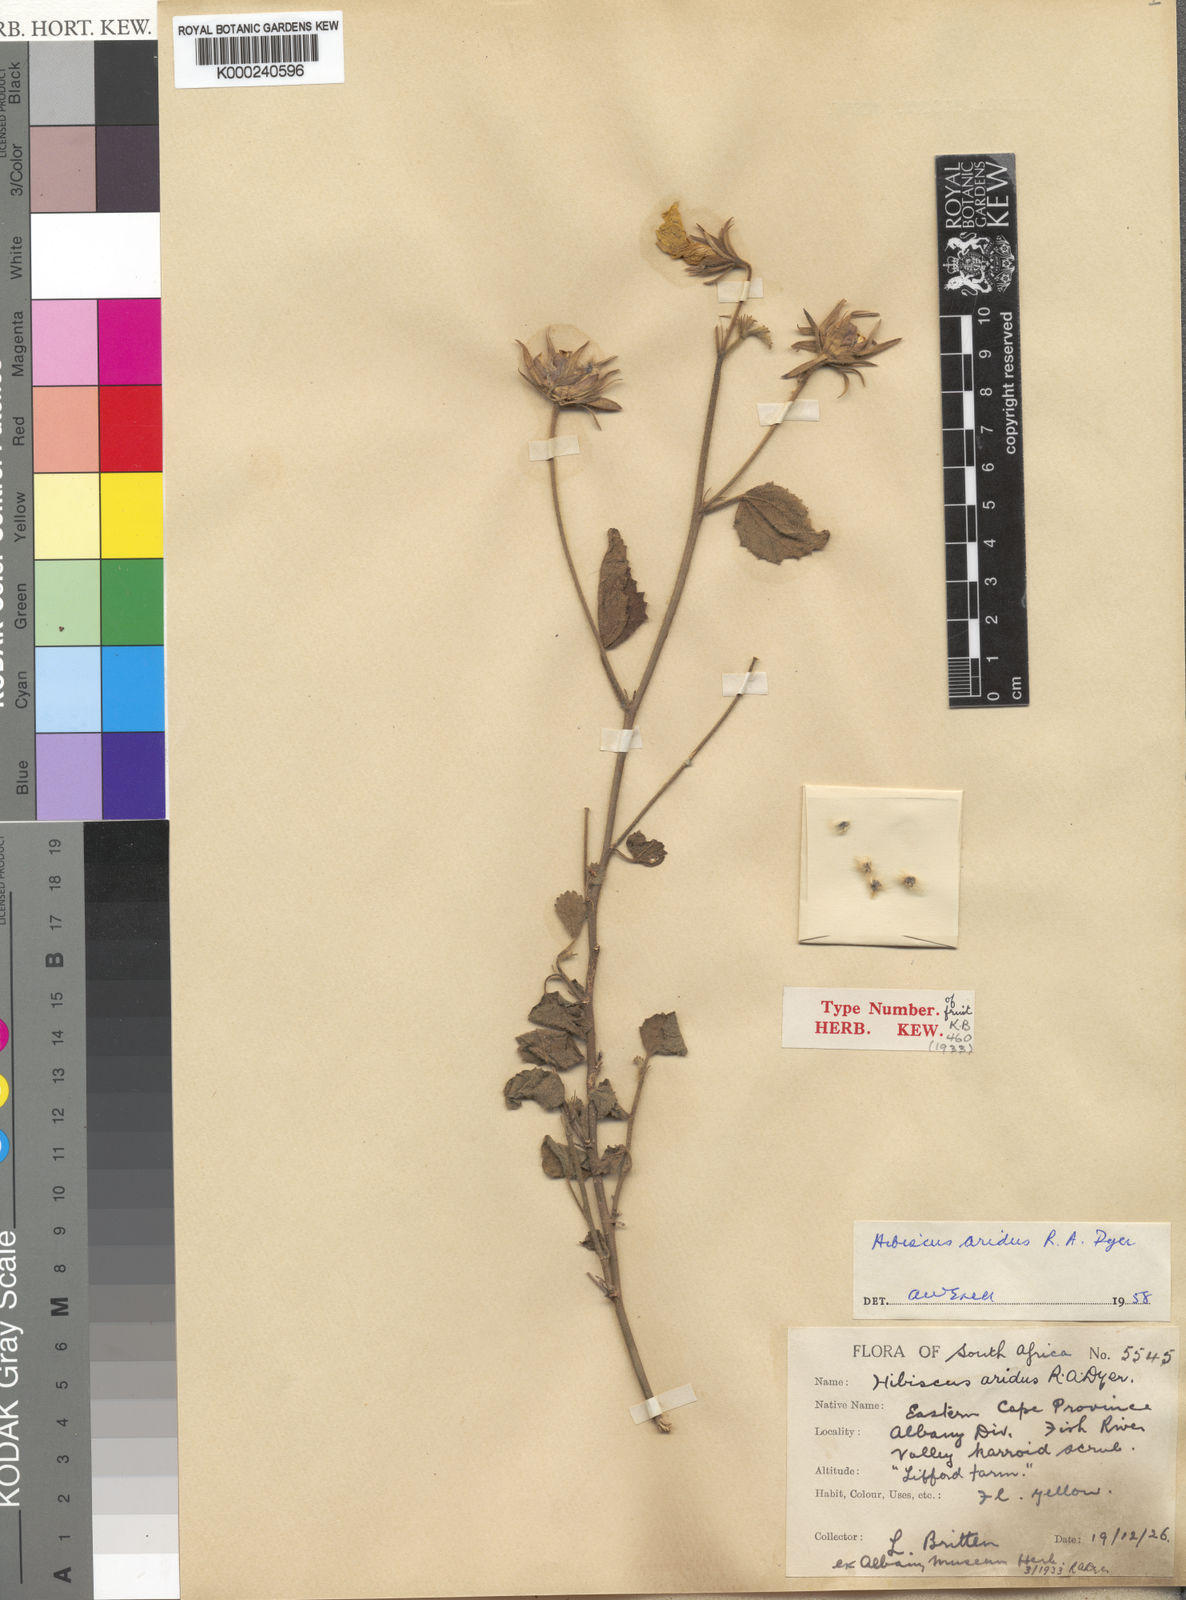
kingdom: Plantae
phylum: Tracheophyta
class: Magnoliopsida
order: Malvales
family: Malvaceae
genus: Hibiscus
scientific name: Hibiscus aridus
